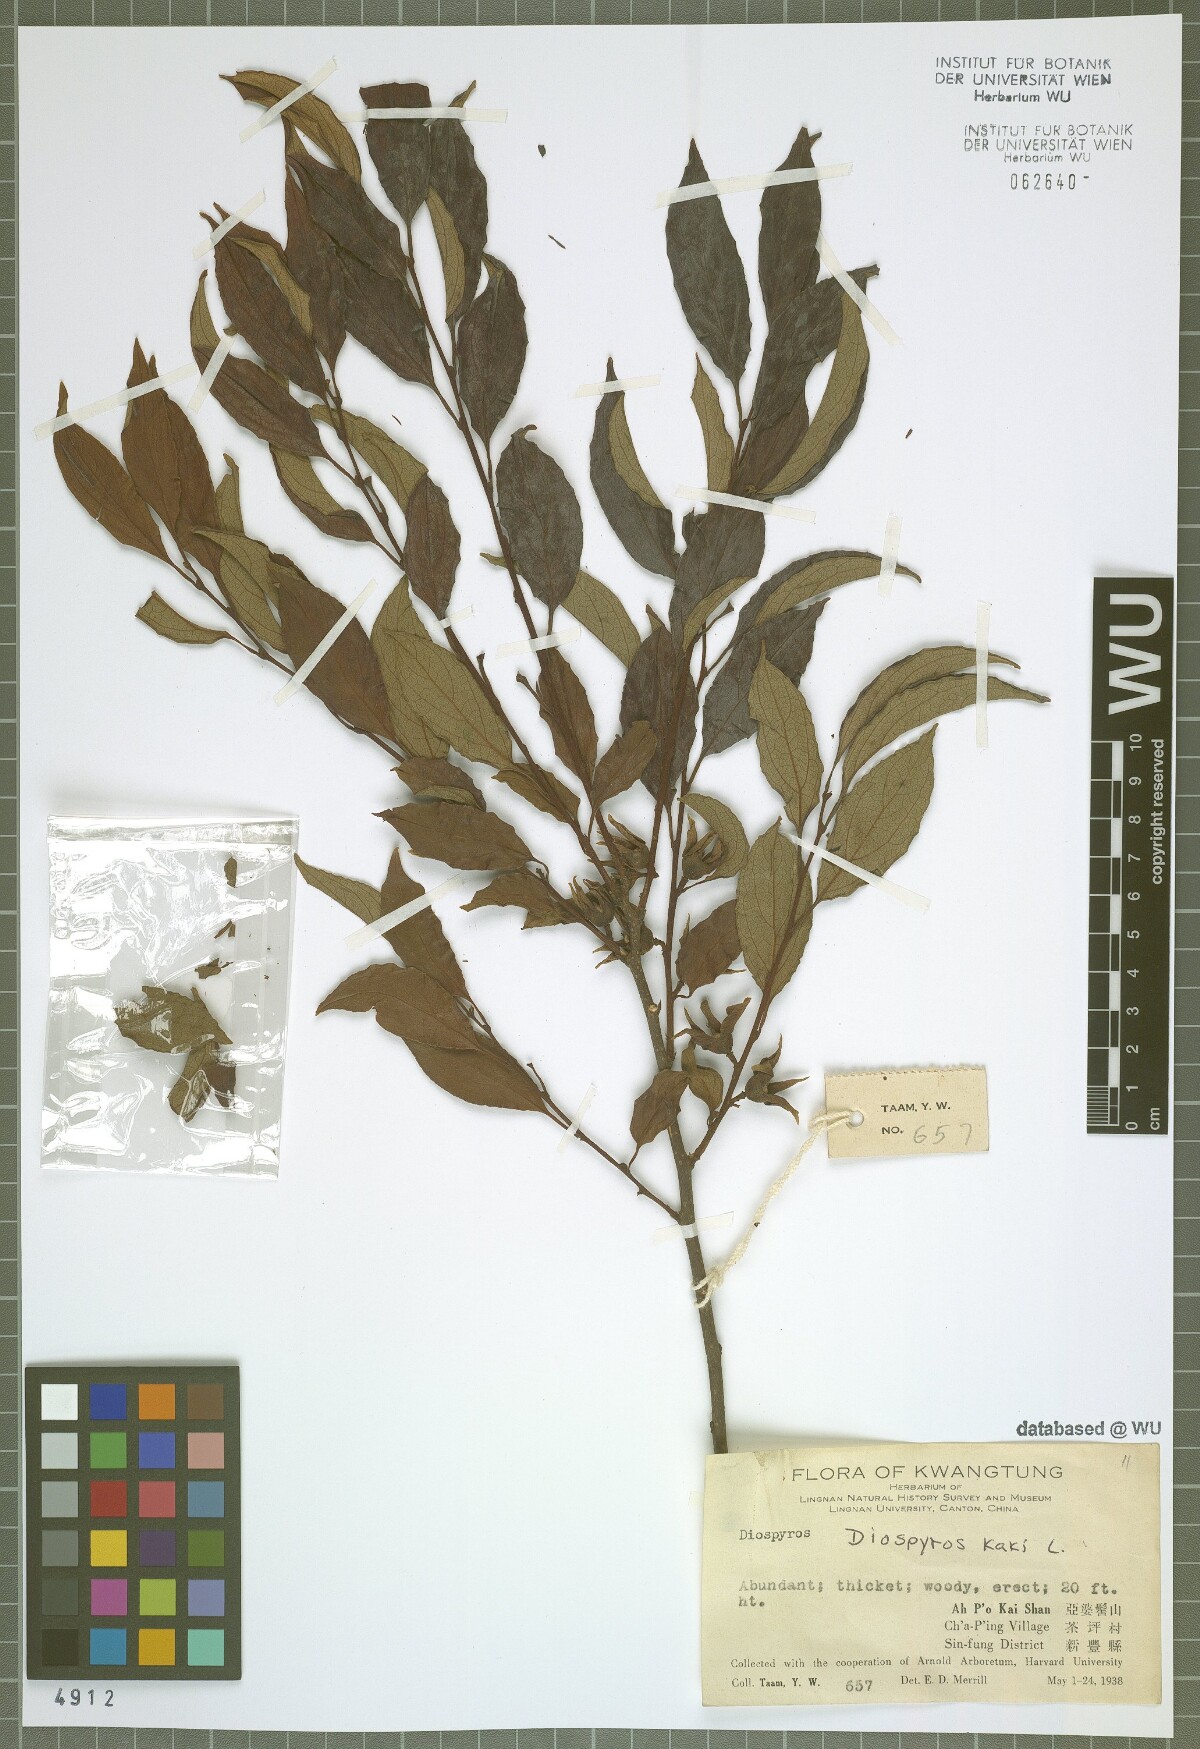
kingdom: Plantae
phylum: Tracheophyta
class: Magnoliopsida
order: Ericales
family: Ebenaceae
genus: Diospyros
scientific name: Diospyros kaki
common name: Persimmon
